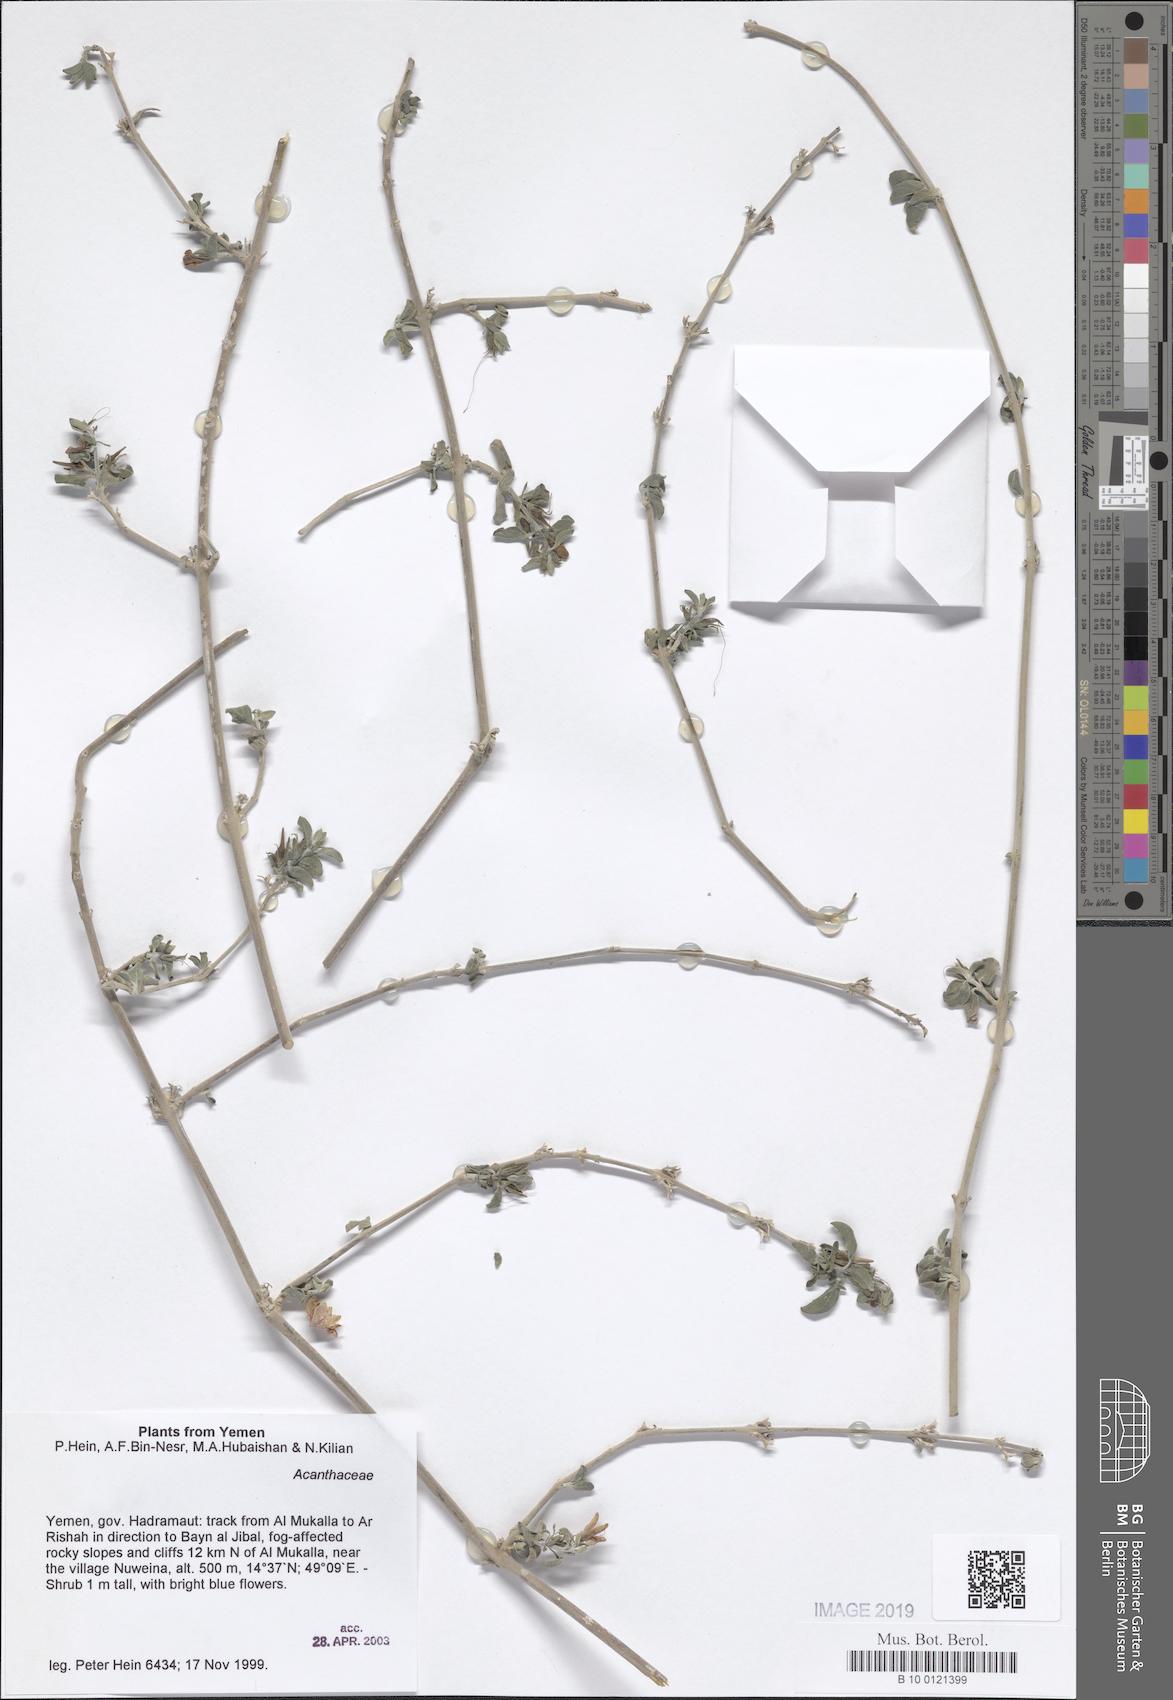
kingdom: Plantae
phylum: Tracheophyta
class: Magnoliopsida
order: Lamiales
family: Acanthaceae
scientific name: Acanthaceae
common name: Acanthaceae
